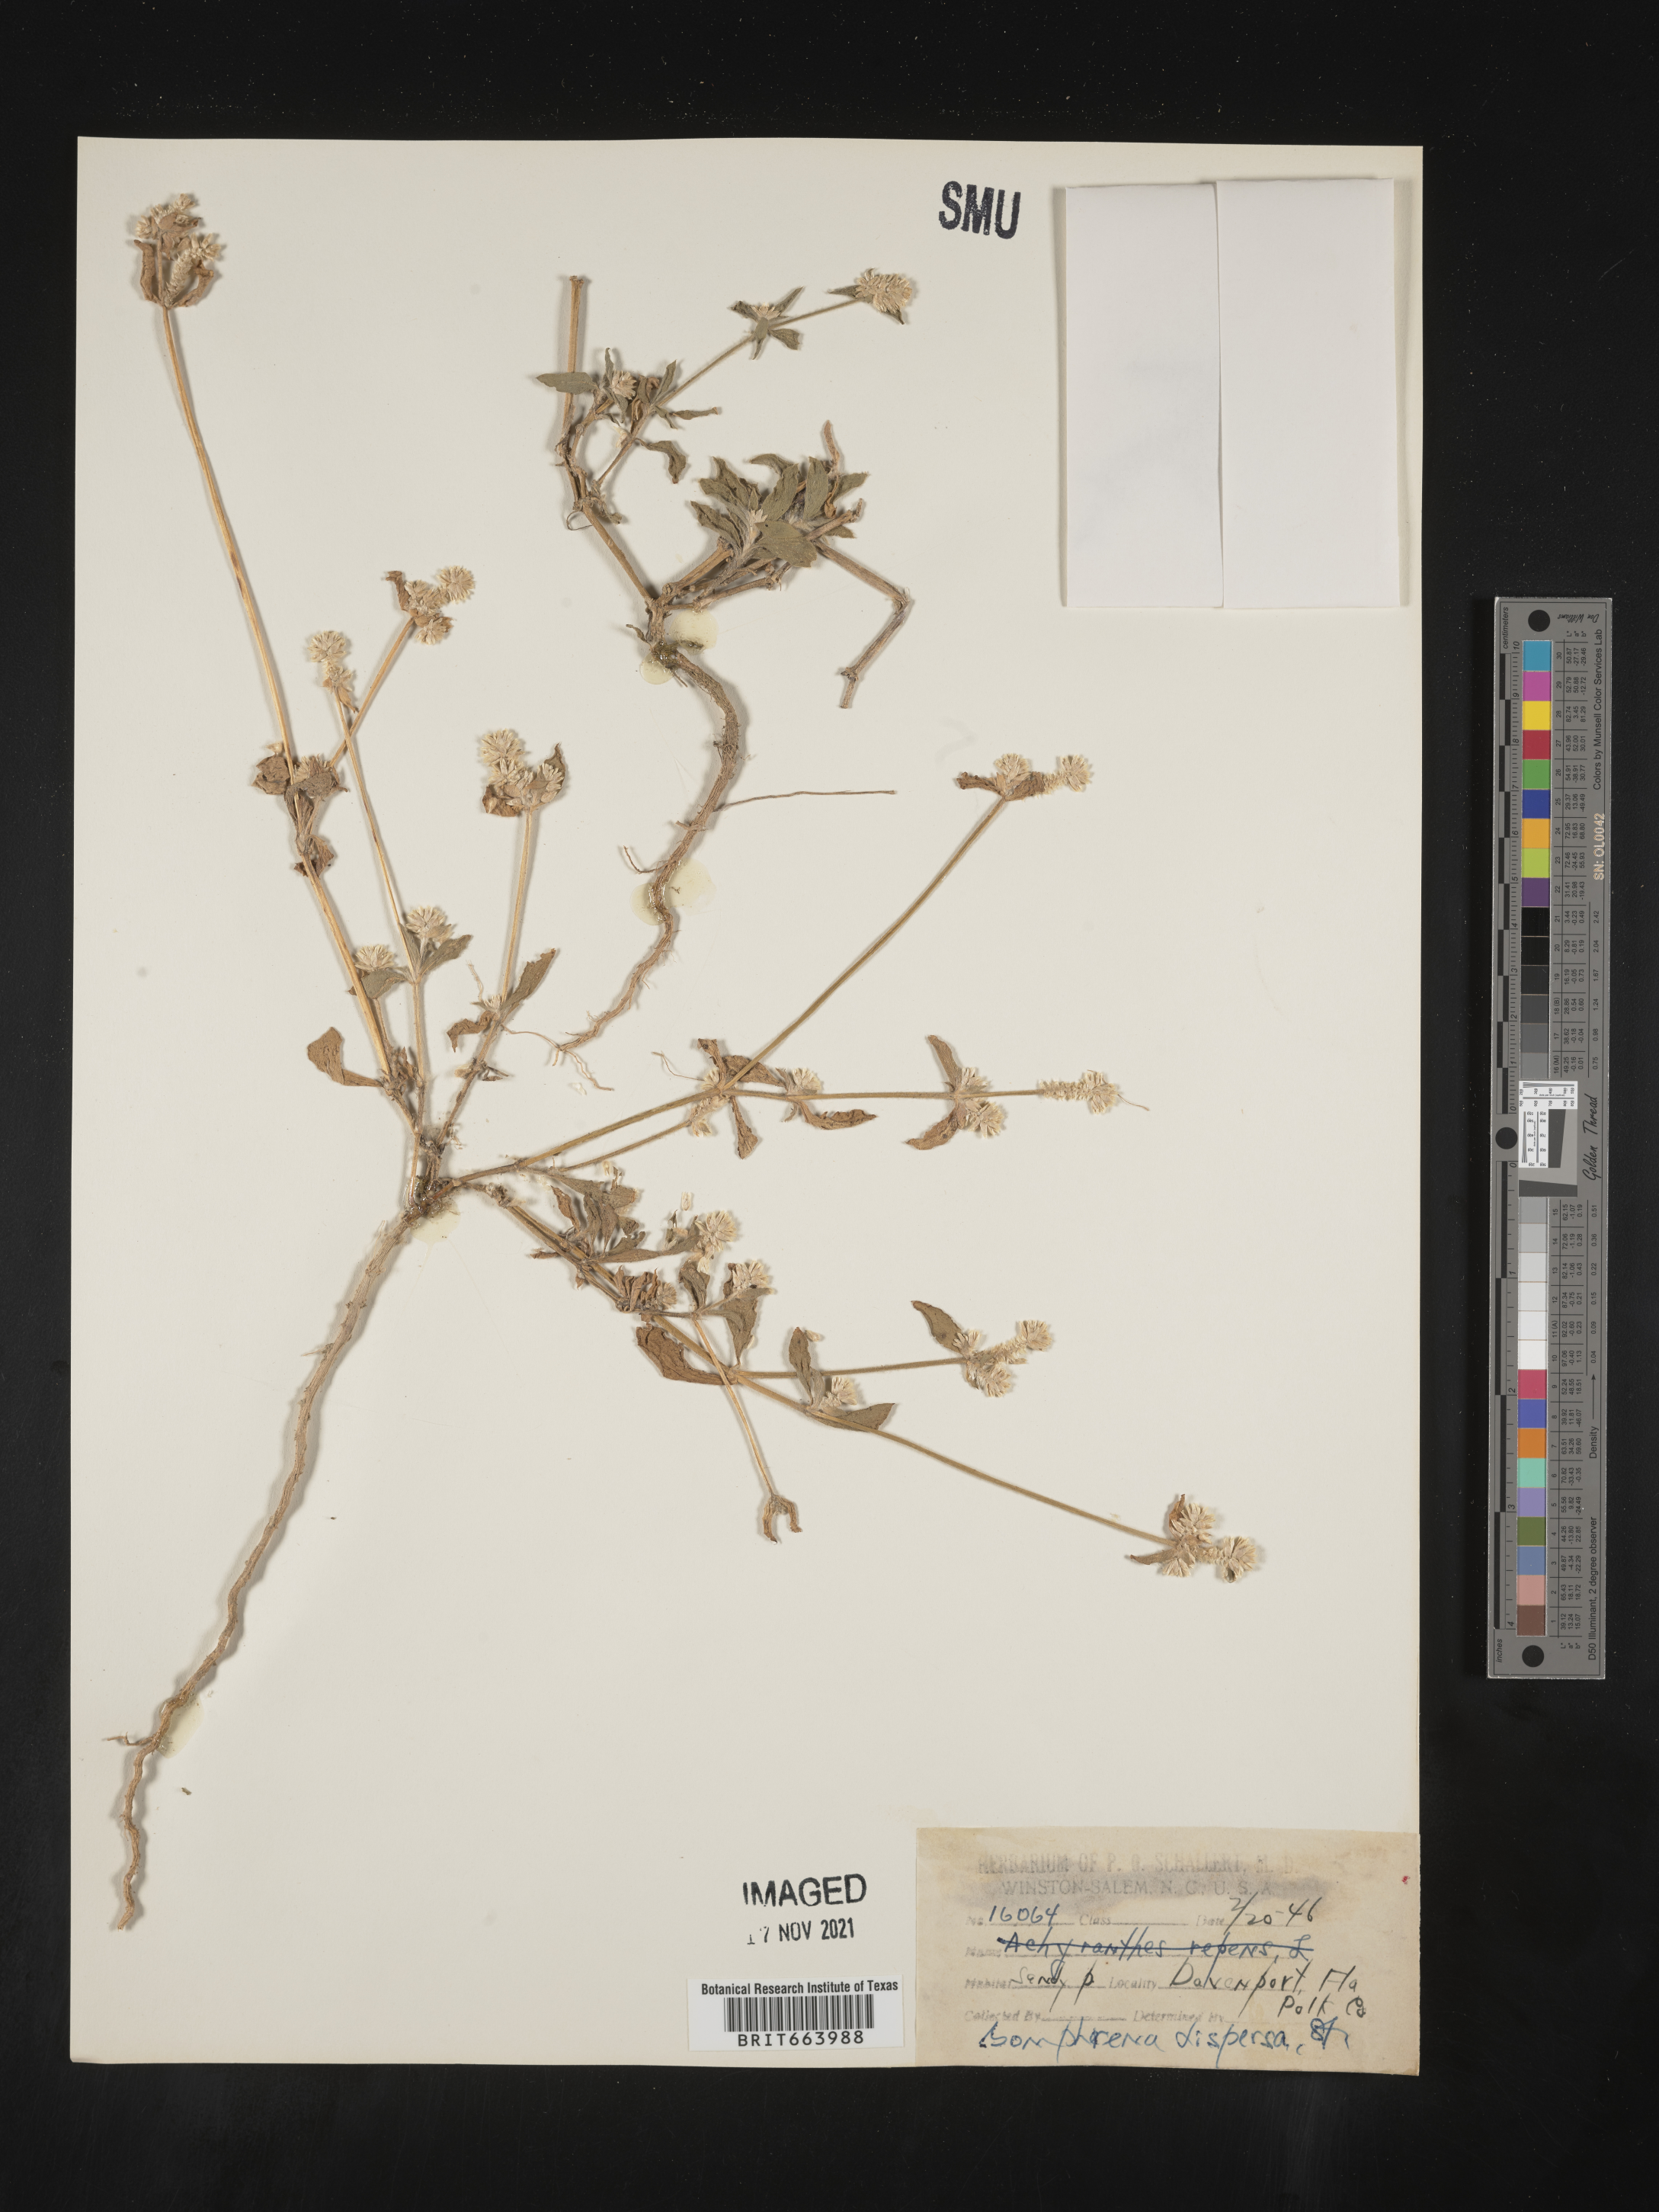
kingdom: Plantae
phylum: Tracheophyta
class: Magnoliopsida
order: Caryophyllales
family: Amaranthaceae
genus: Gomphrena
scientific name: Gomphrena
